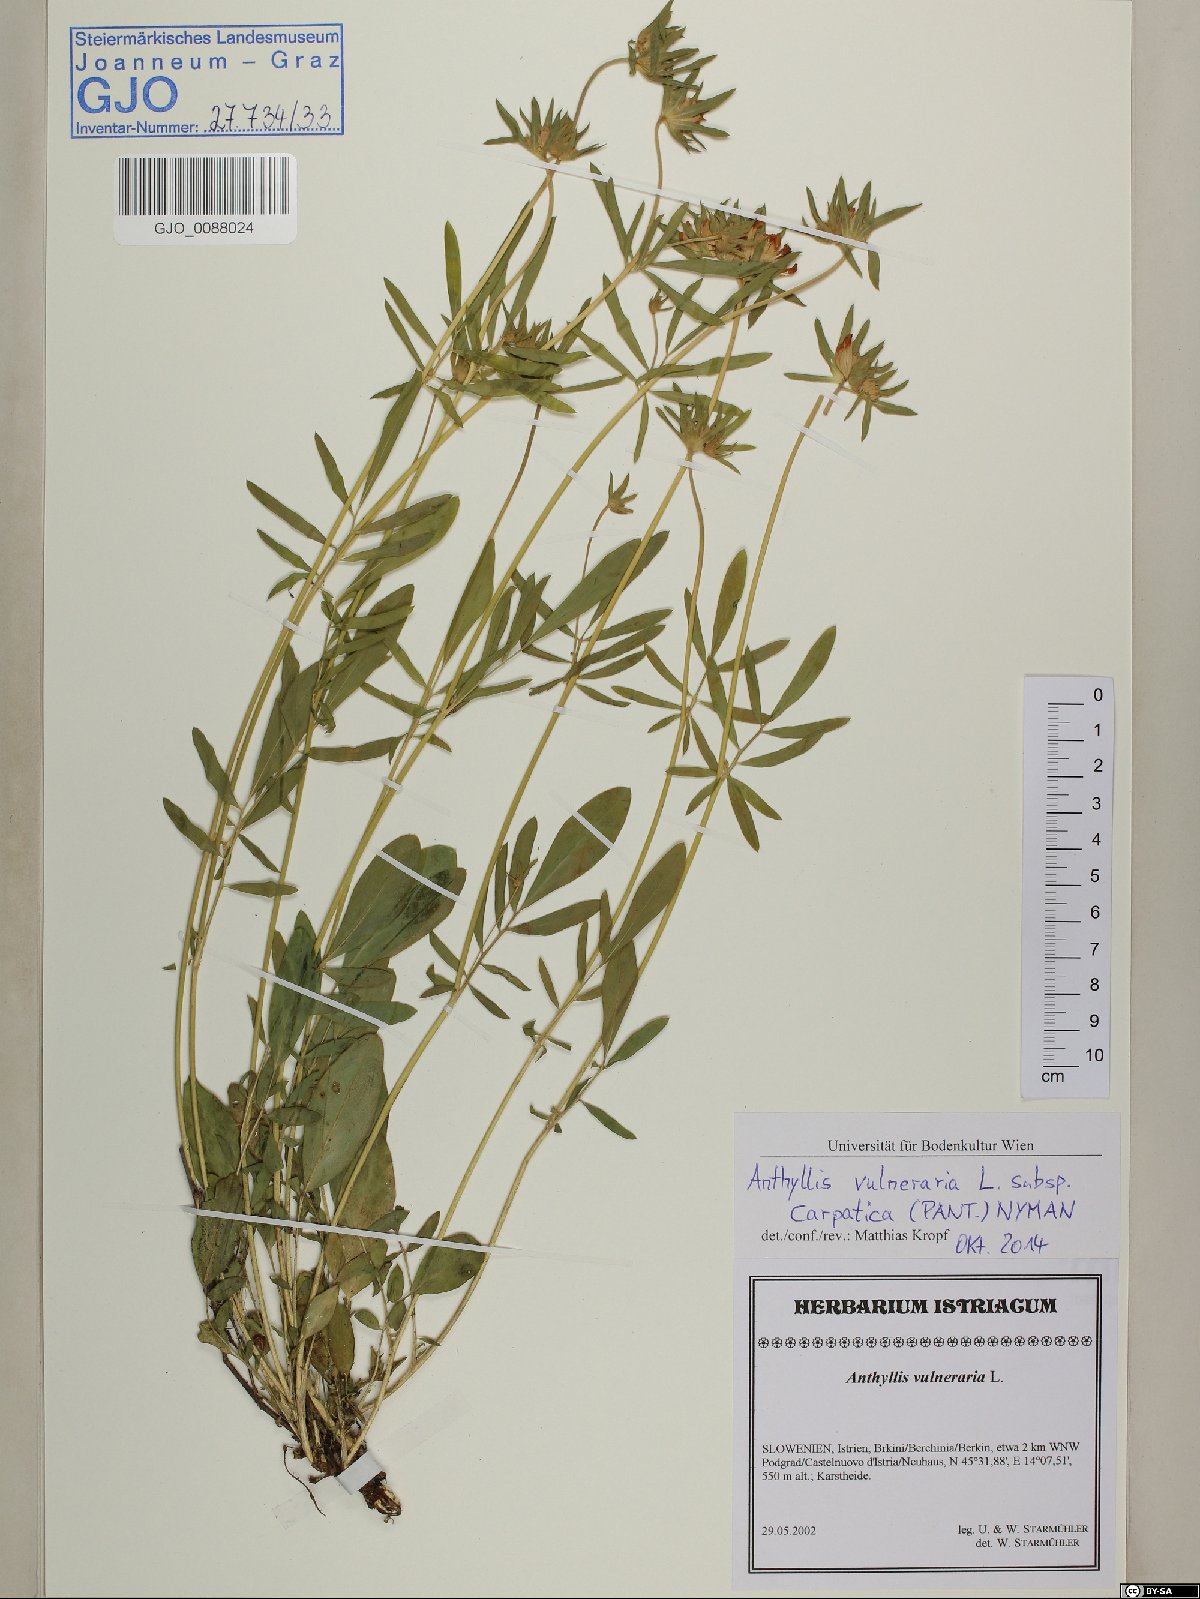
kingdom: Plantae
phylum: Tracheophyta
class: Magnoliopsida
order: Fabales
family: Fabaceae
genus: Anthyllis
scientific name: Anthyllis vulneraria
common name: Kidney vetch
